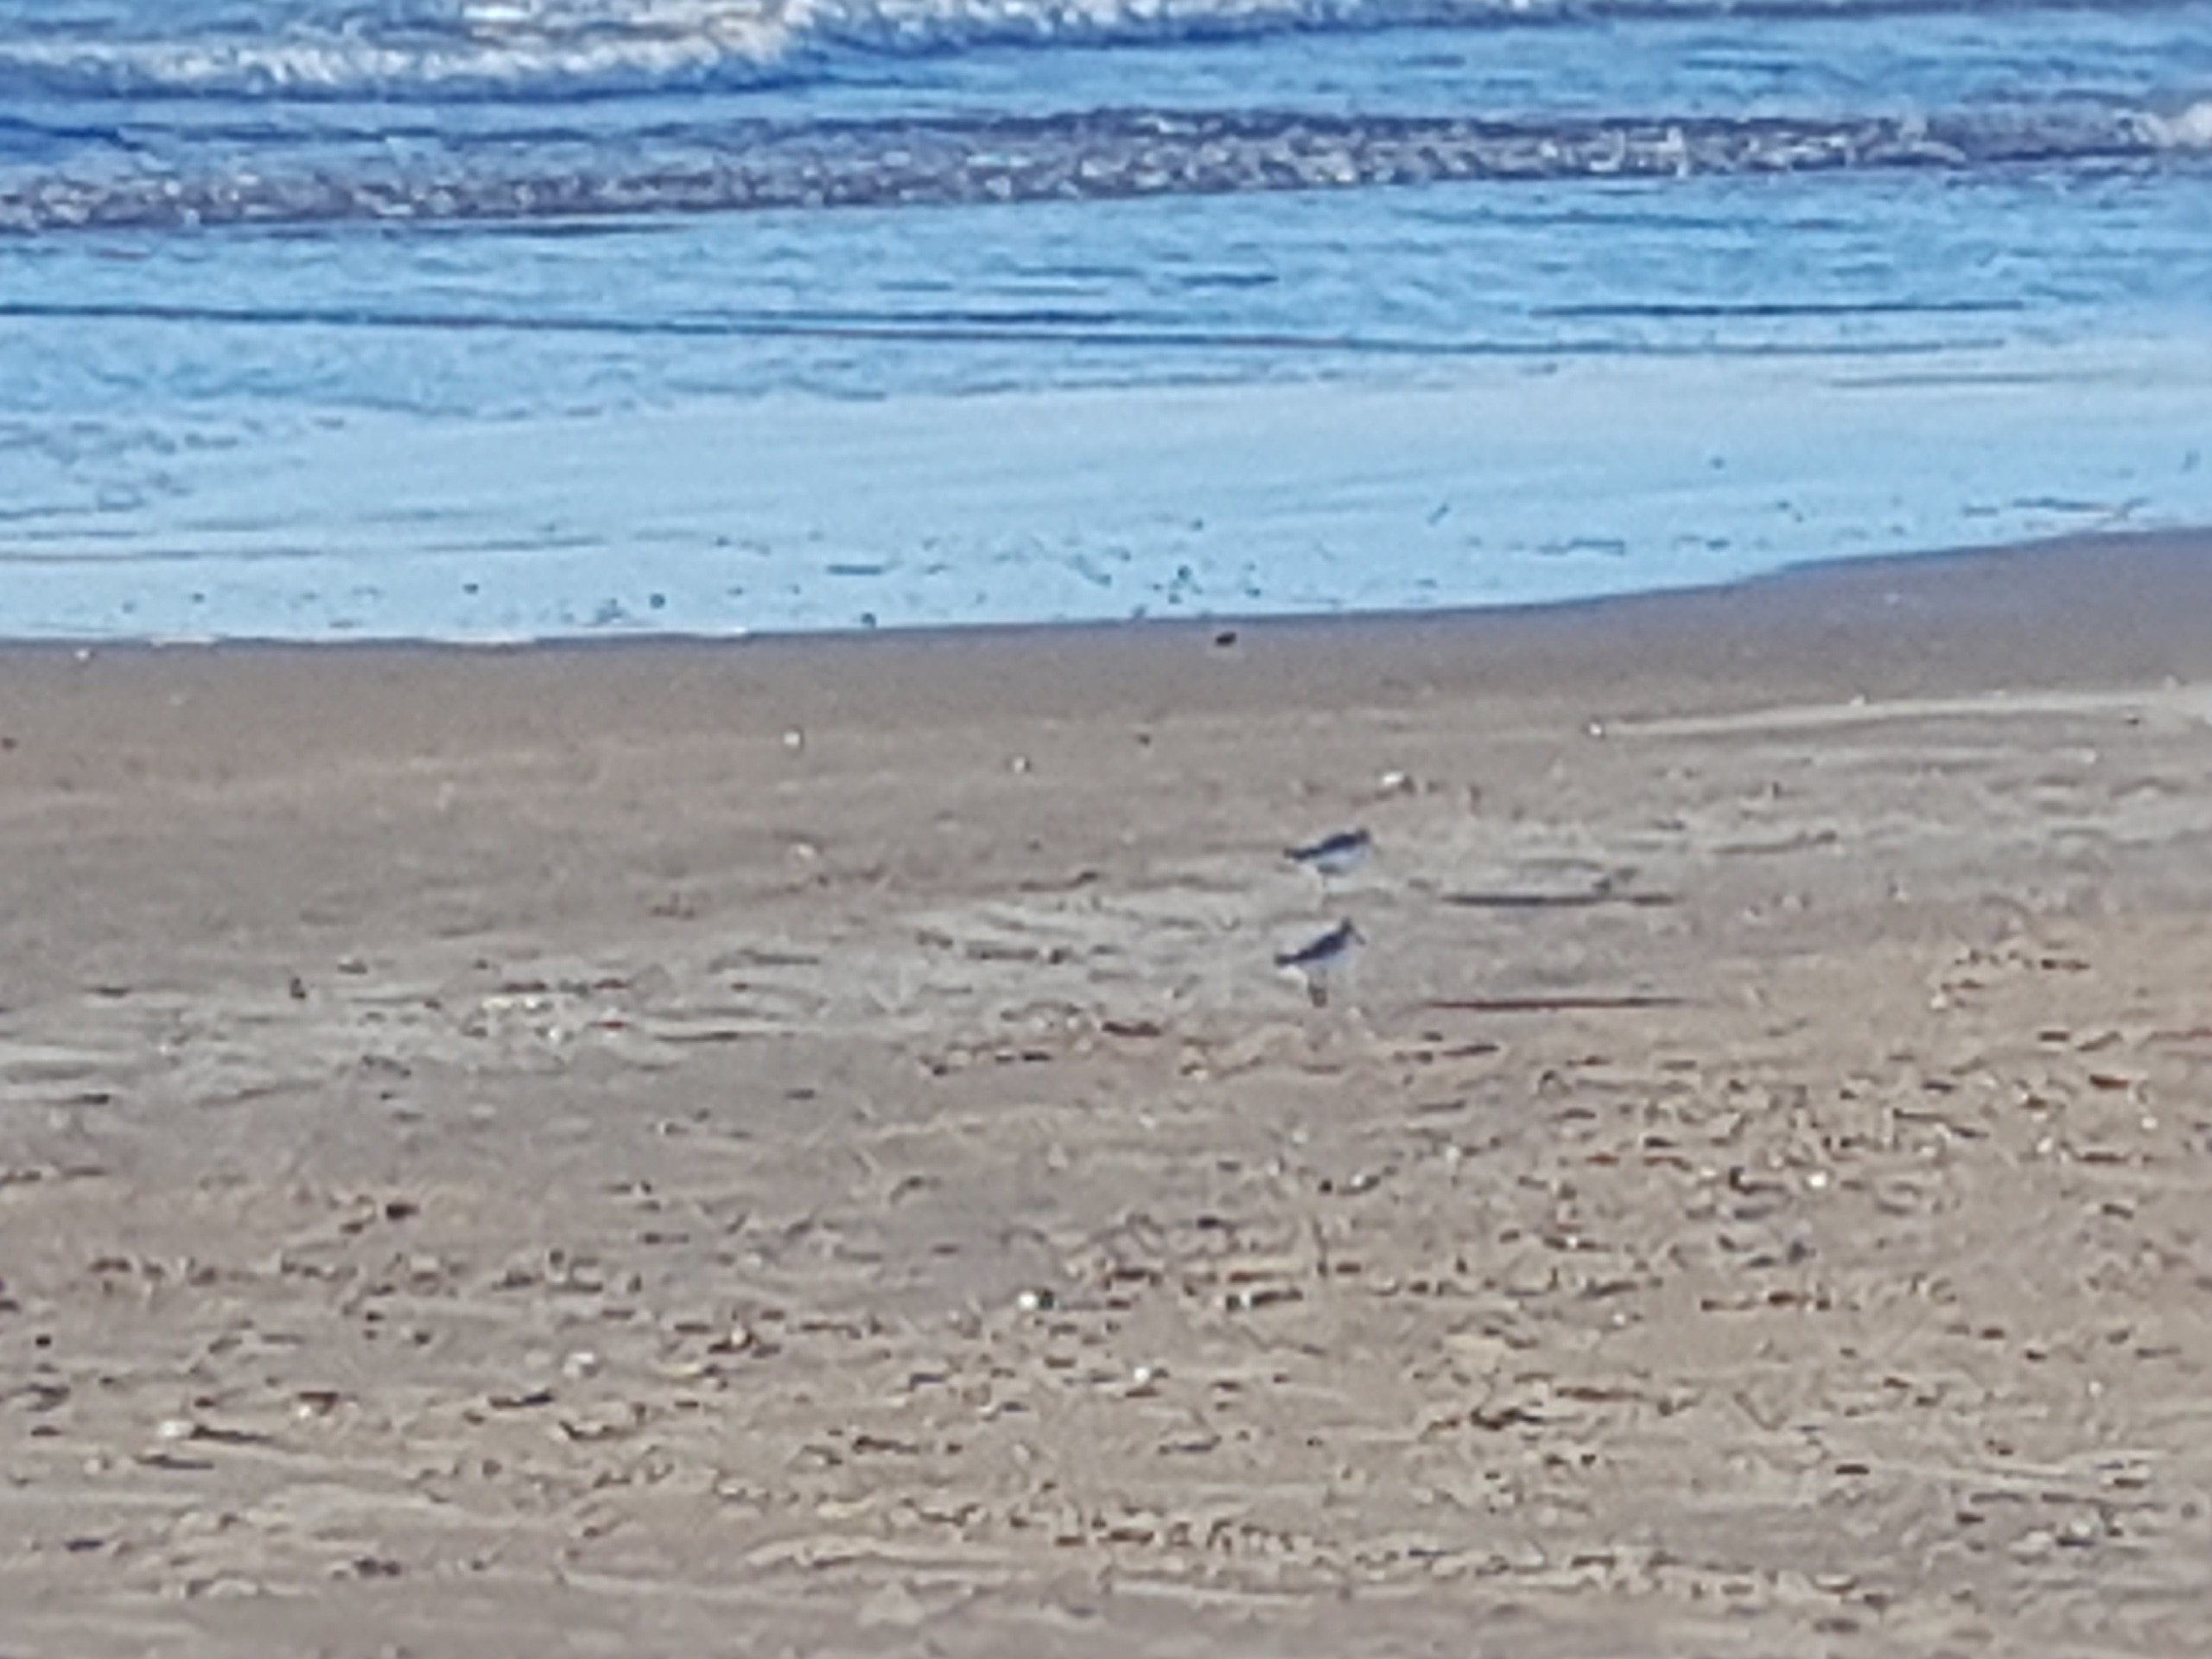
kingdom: Animalia
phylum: Chordata
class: Aves
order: Charadriiformes
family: Scolopacidae
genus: Calidris
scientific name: Calidris alba
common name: Sandløber
